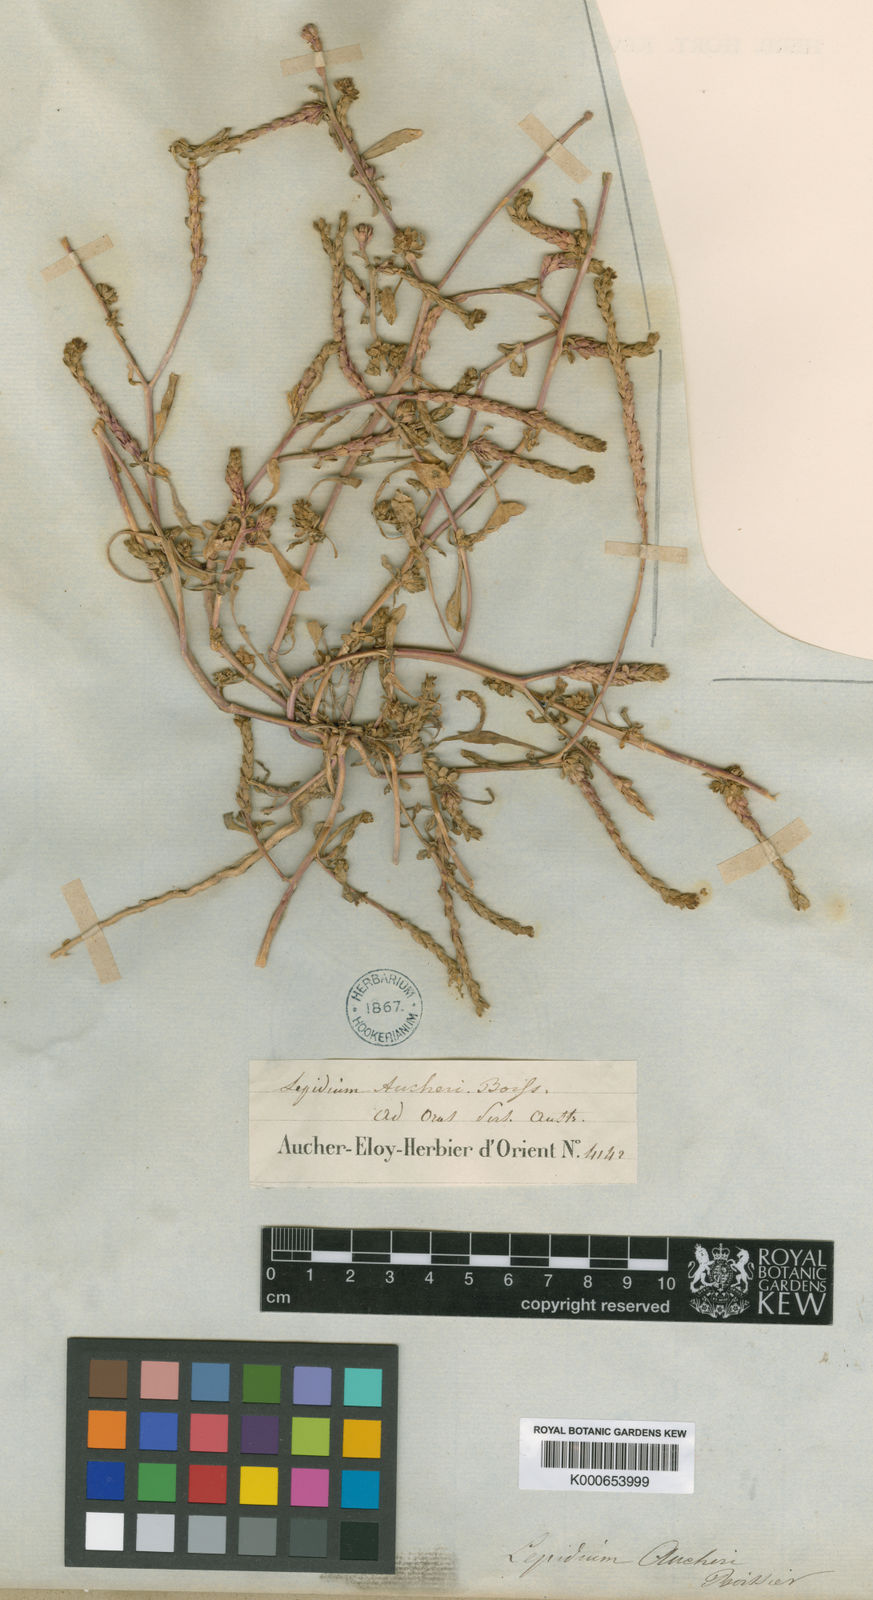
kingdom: Plantae
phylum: Tracheophyta
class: Magnoliopsida
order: Brassicales
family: Brassicaceae
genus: Lepidium
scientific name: Lepidium aucheri
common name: Aucher's peppergrass
